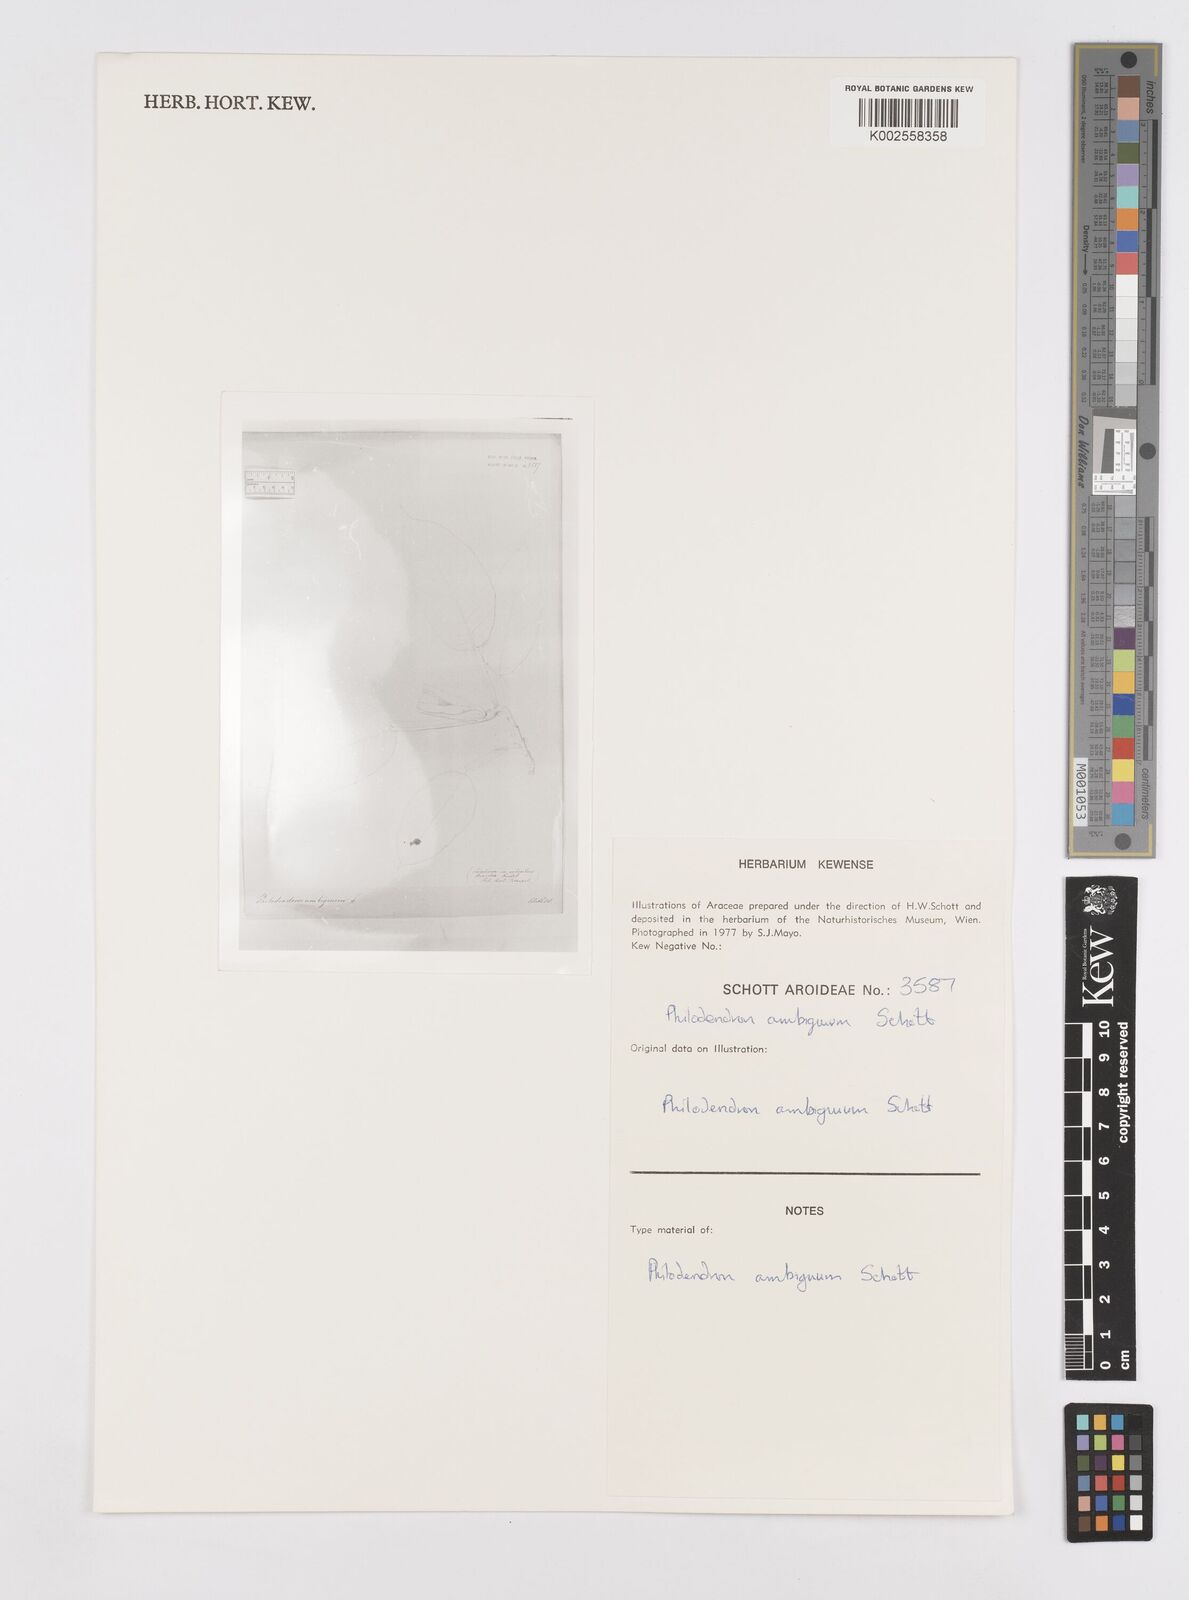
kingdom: Plantae
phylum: Tracheophyta
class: Liliopsida
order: Alismatales
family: Araceae
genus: Philodendron
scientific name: Philodendron propinquum
